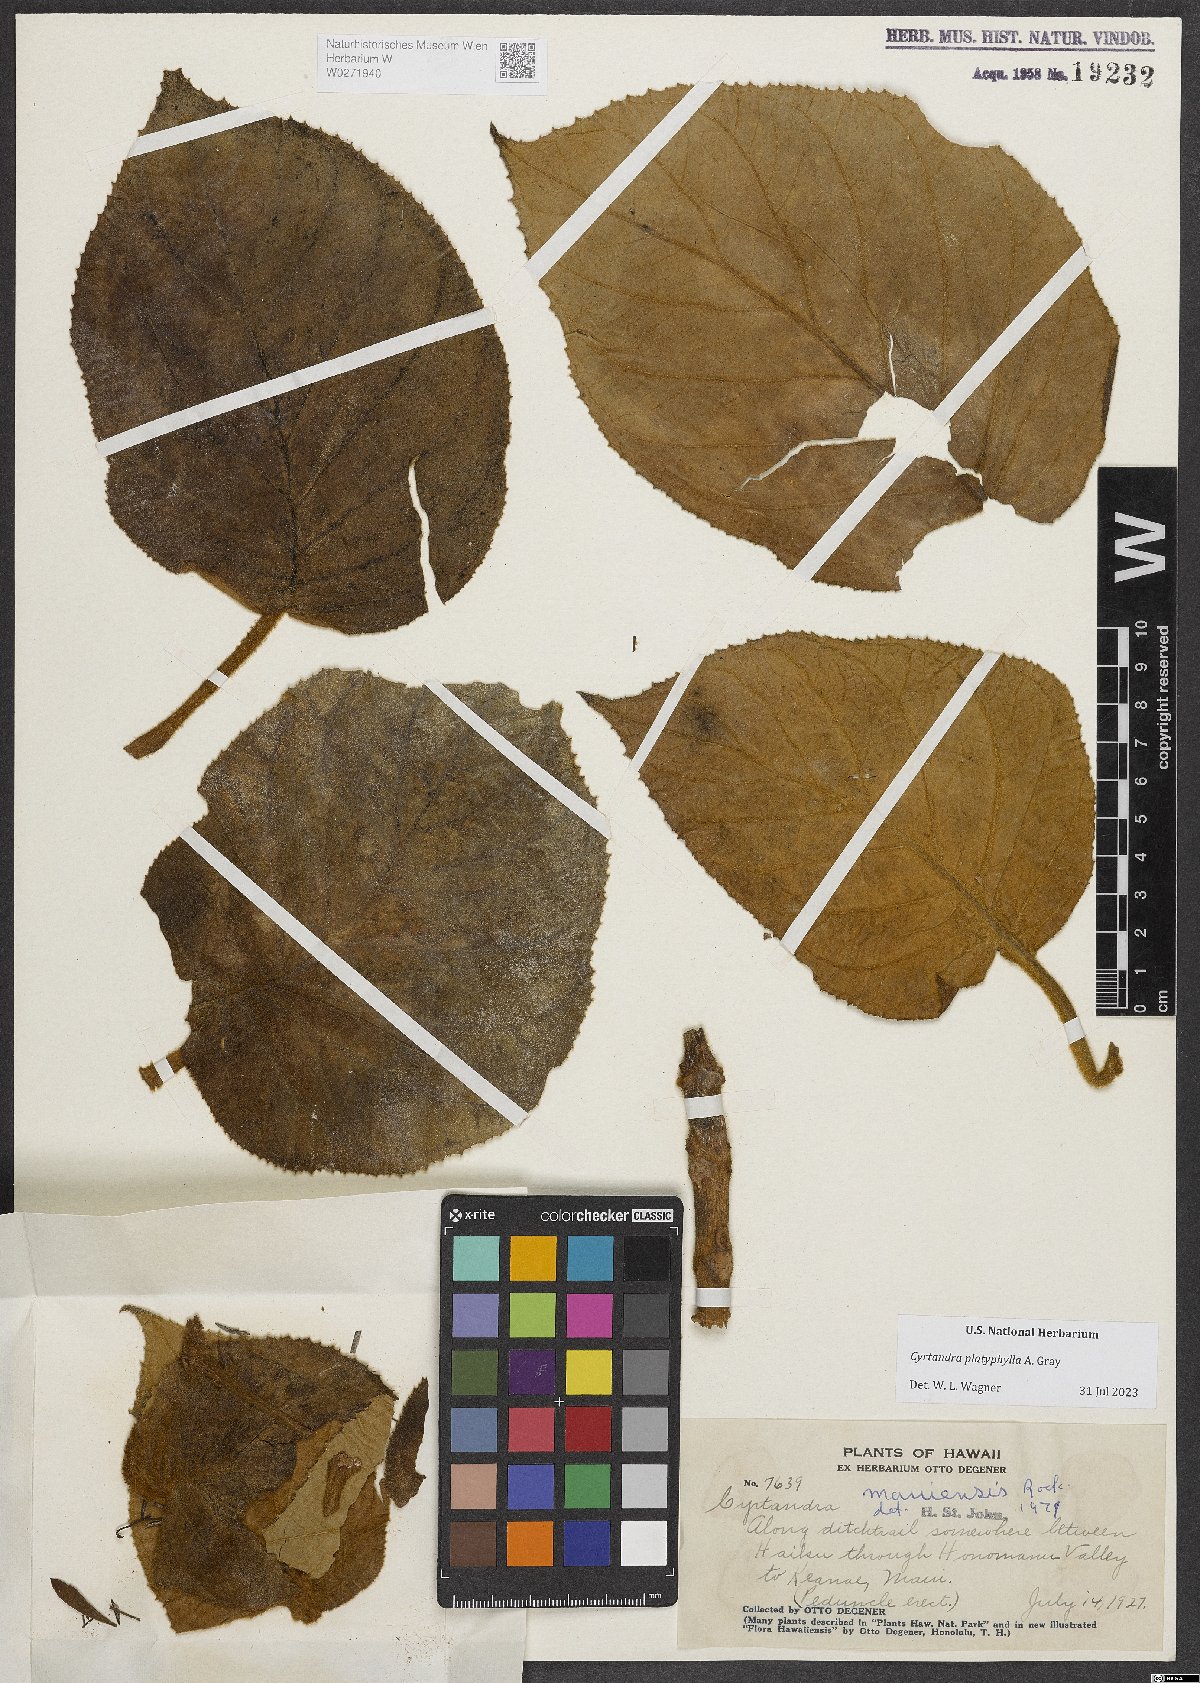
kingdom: Plantae
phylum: Tracheophyta
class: Magnoliopsida
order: Lamiales
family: Gesneriaceae
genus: Cyrtandra
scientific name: Cyrtandra platyphylla
